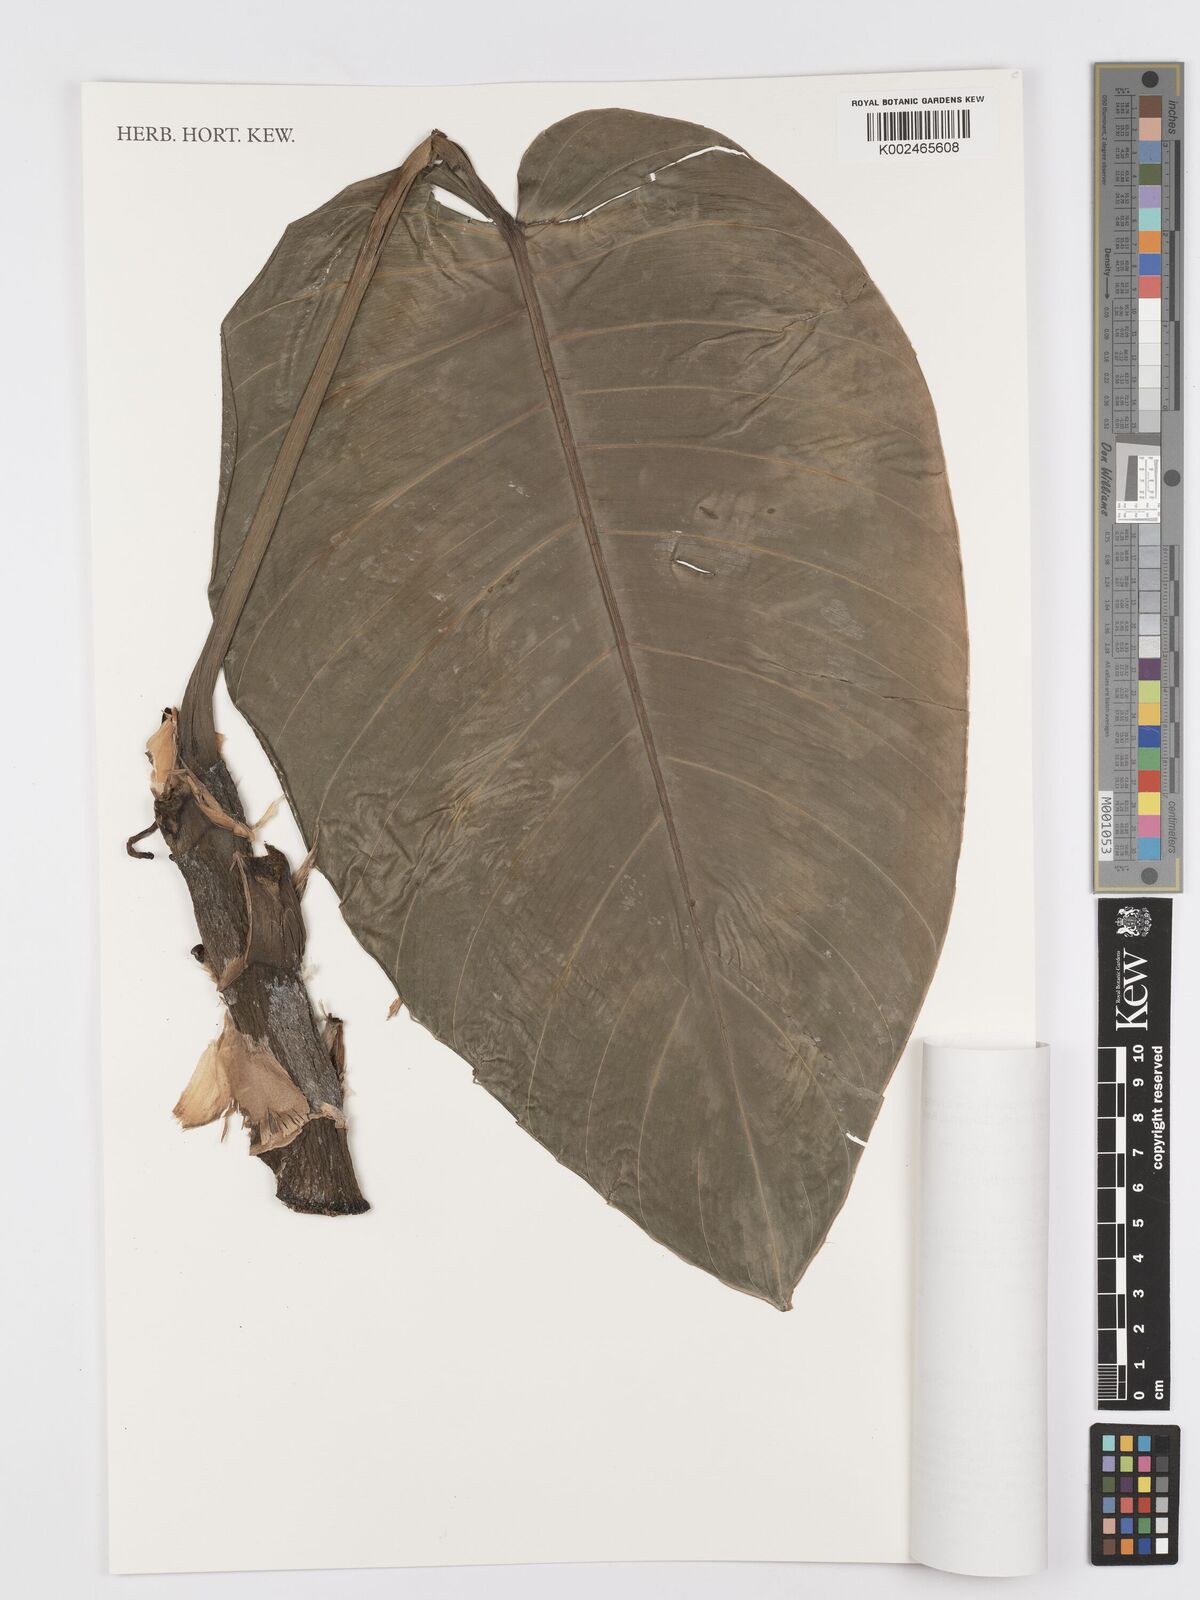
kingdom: Plantae
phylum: Tracheophyta
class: Liliopsida
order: Alismatales
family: Araceae
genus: Rhaphidophora
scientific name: Rhaphidophora megaphylla
